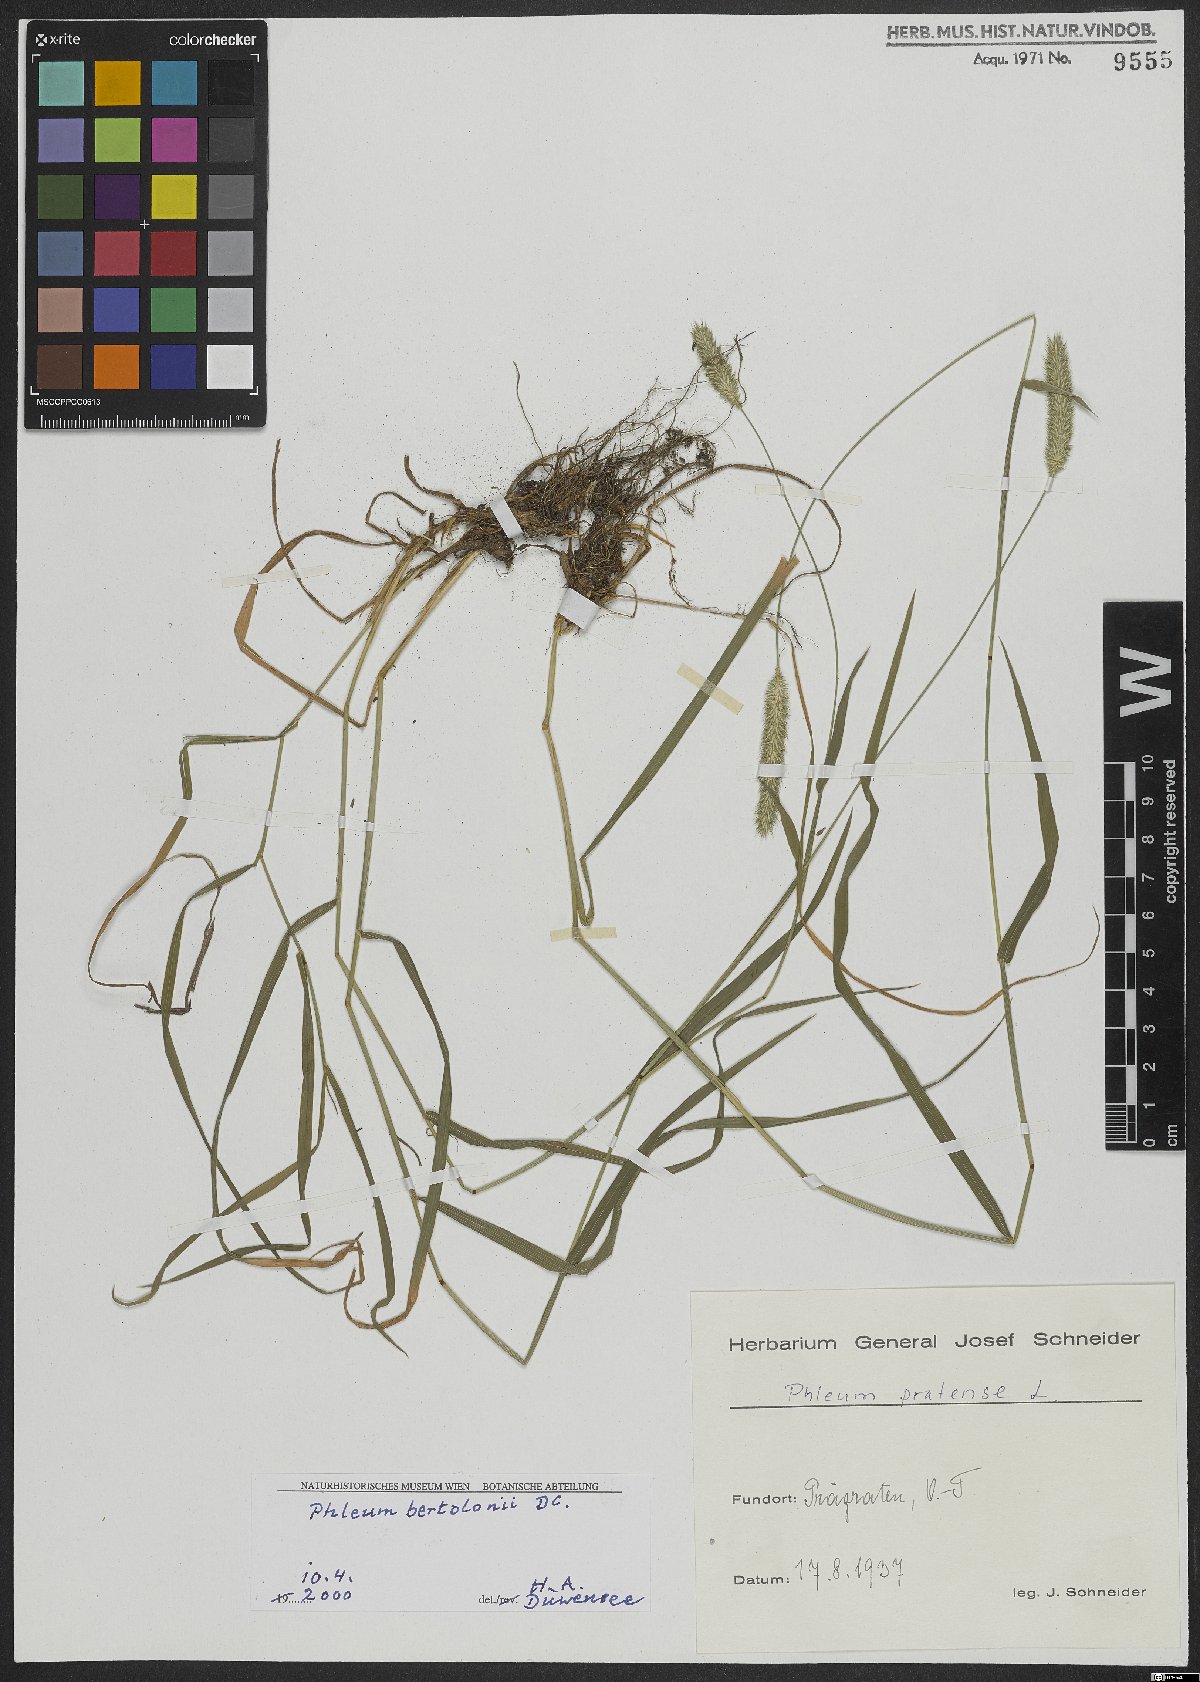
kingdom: Plantae
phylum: Tracheophyta
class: Liliopsida
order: Poales
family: Poaceae
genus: Phleum
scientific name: Phleum pratense
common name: Timothy grass
